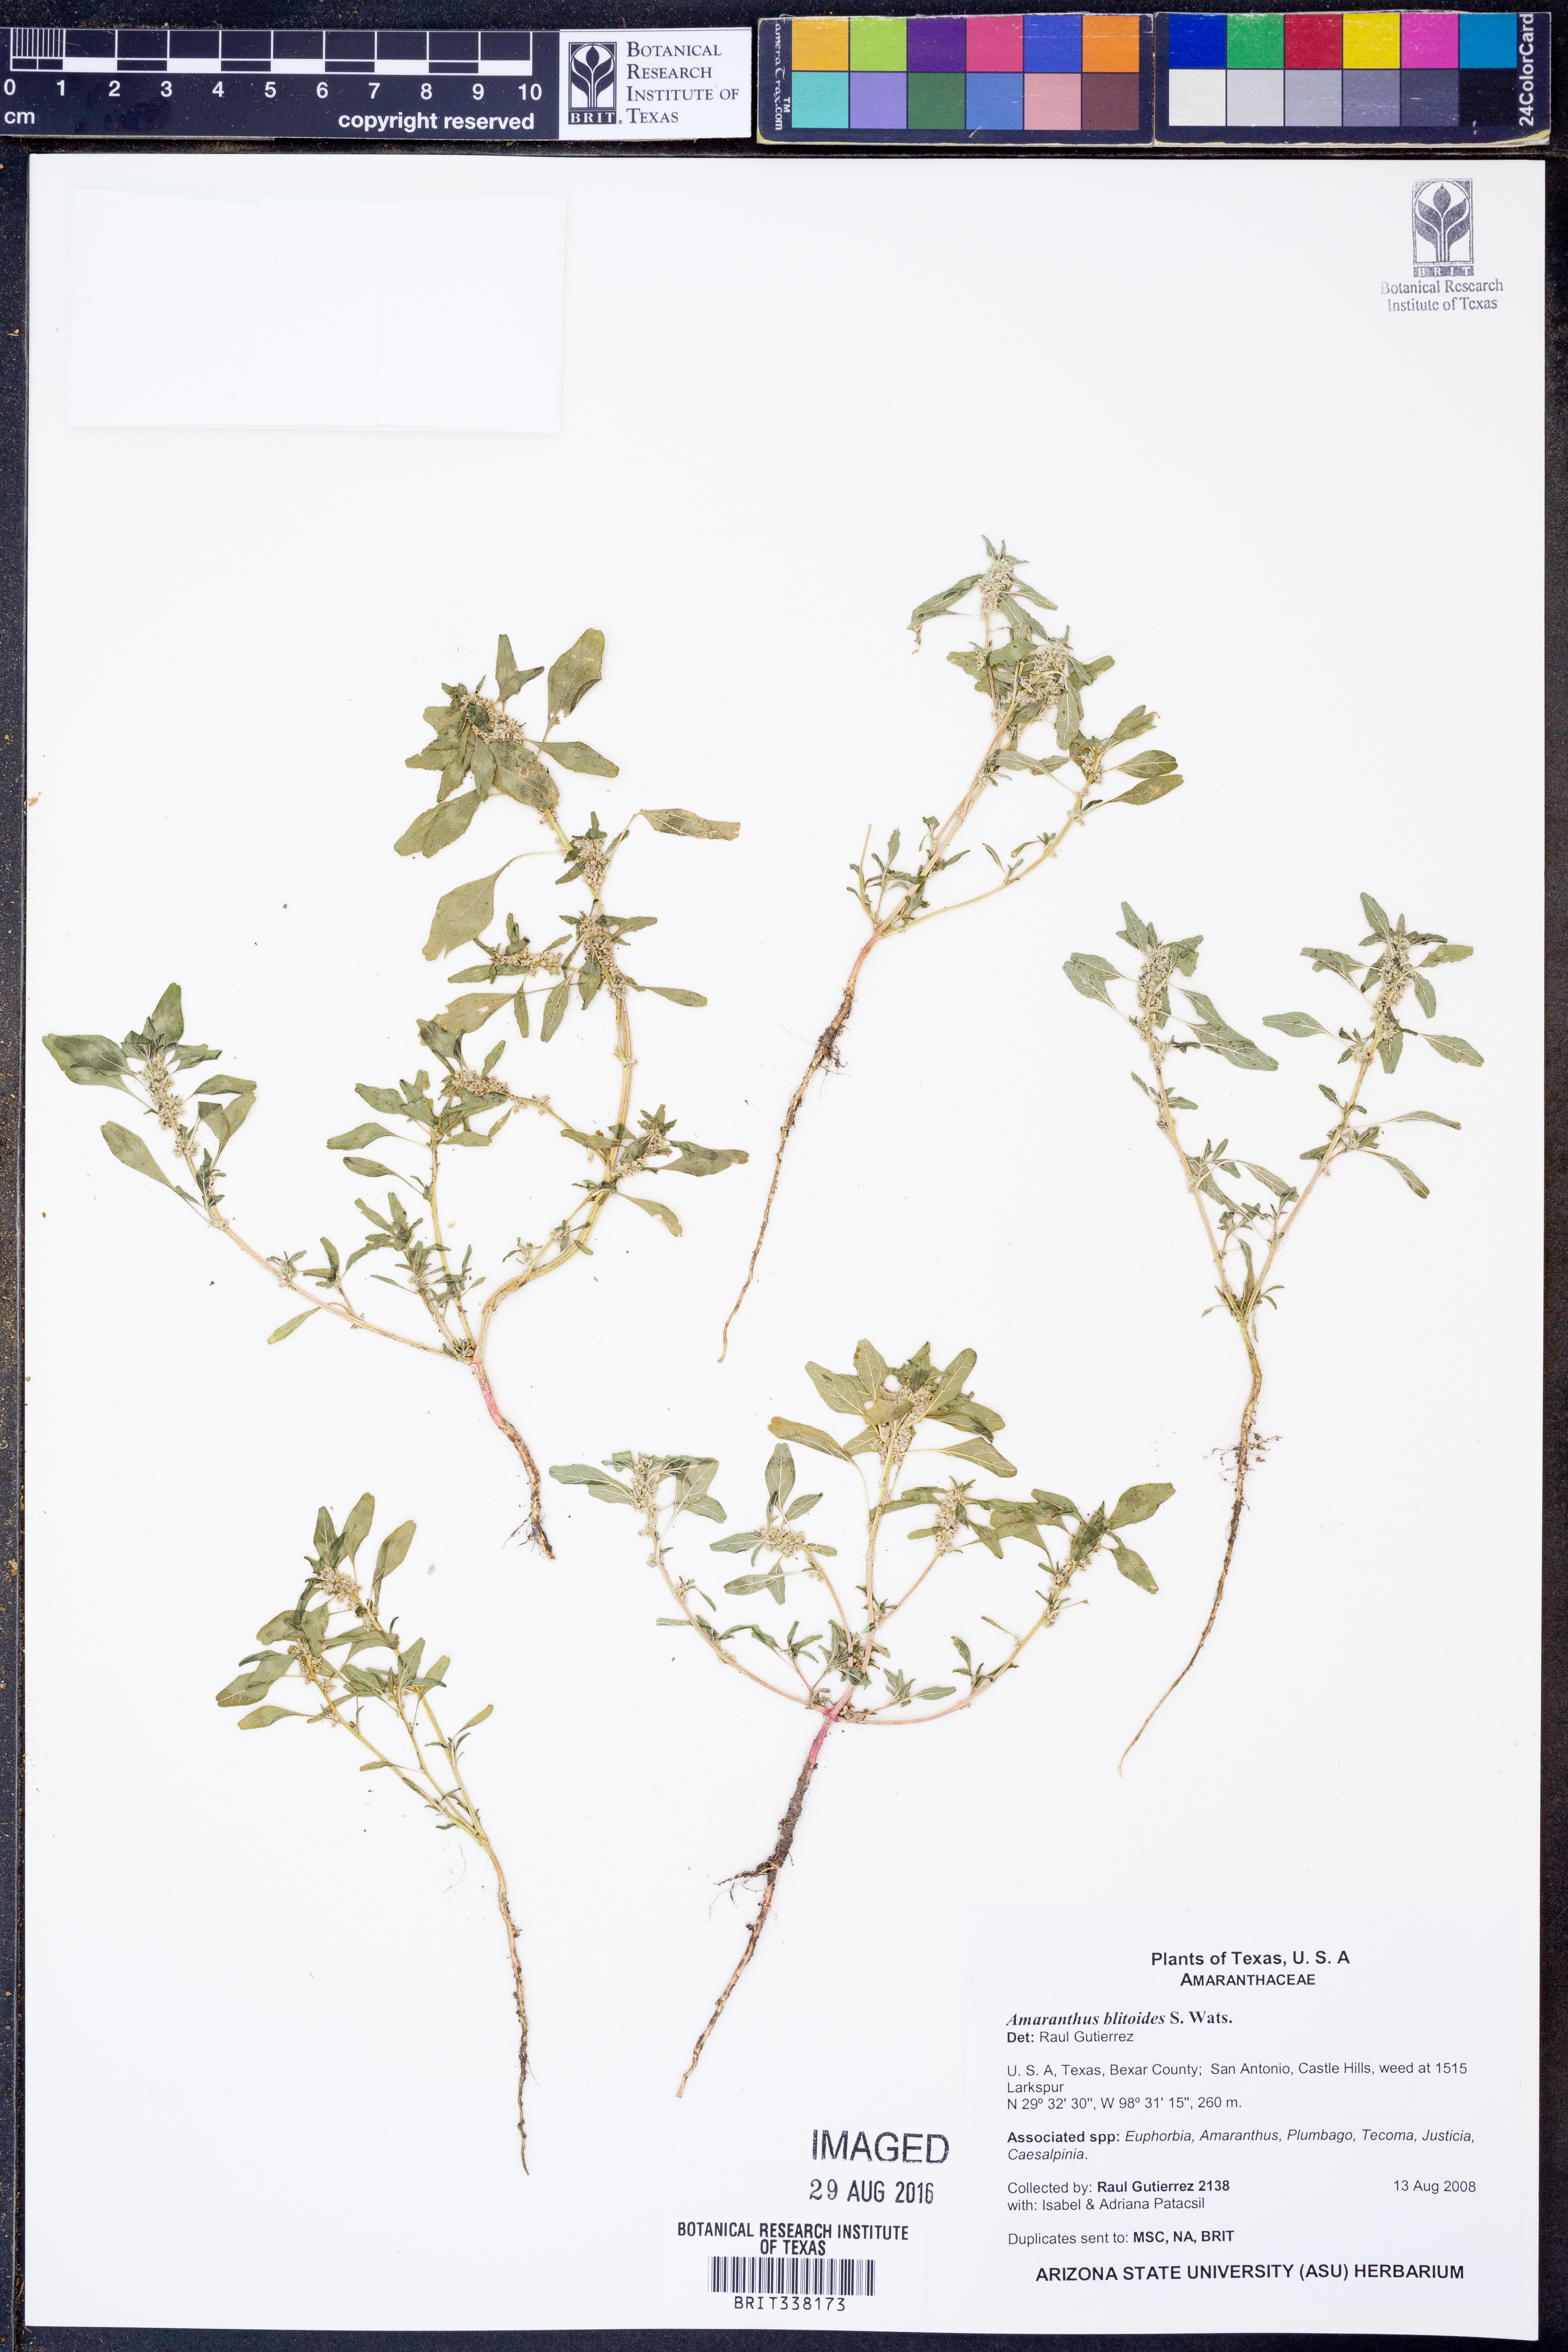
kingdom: Plantae
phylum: Tracheophyta
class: Magnoliopsida
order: Caryophyllales
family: Amaranthaceae
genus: Amaranthus
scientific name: Amaranthus blitoides
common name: Prostrate pigweed
